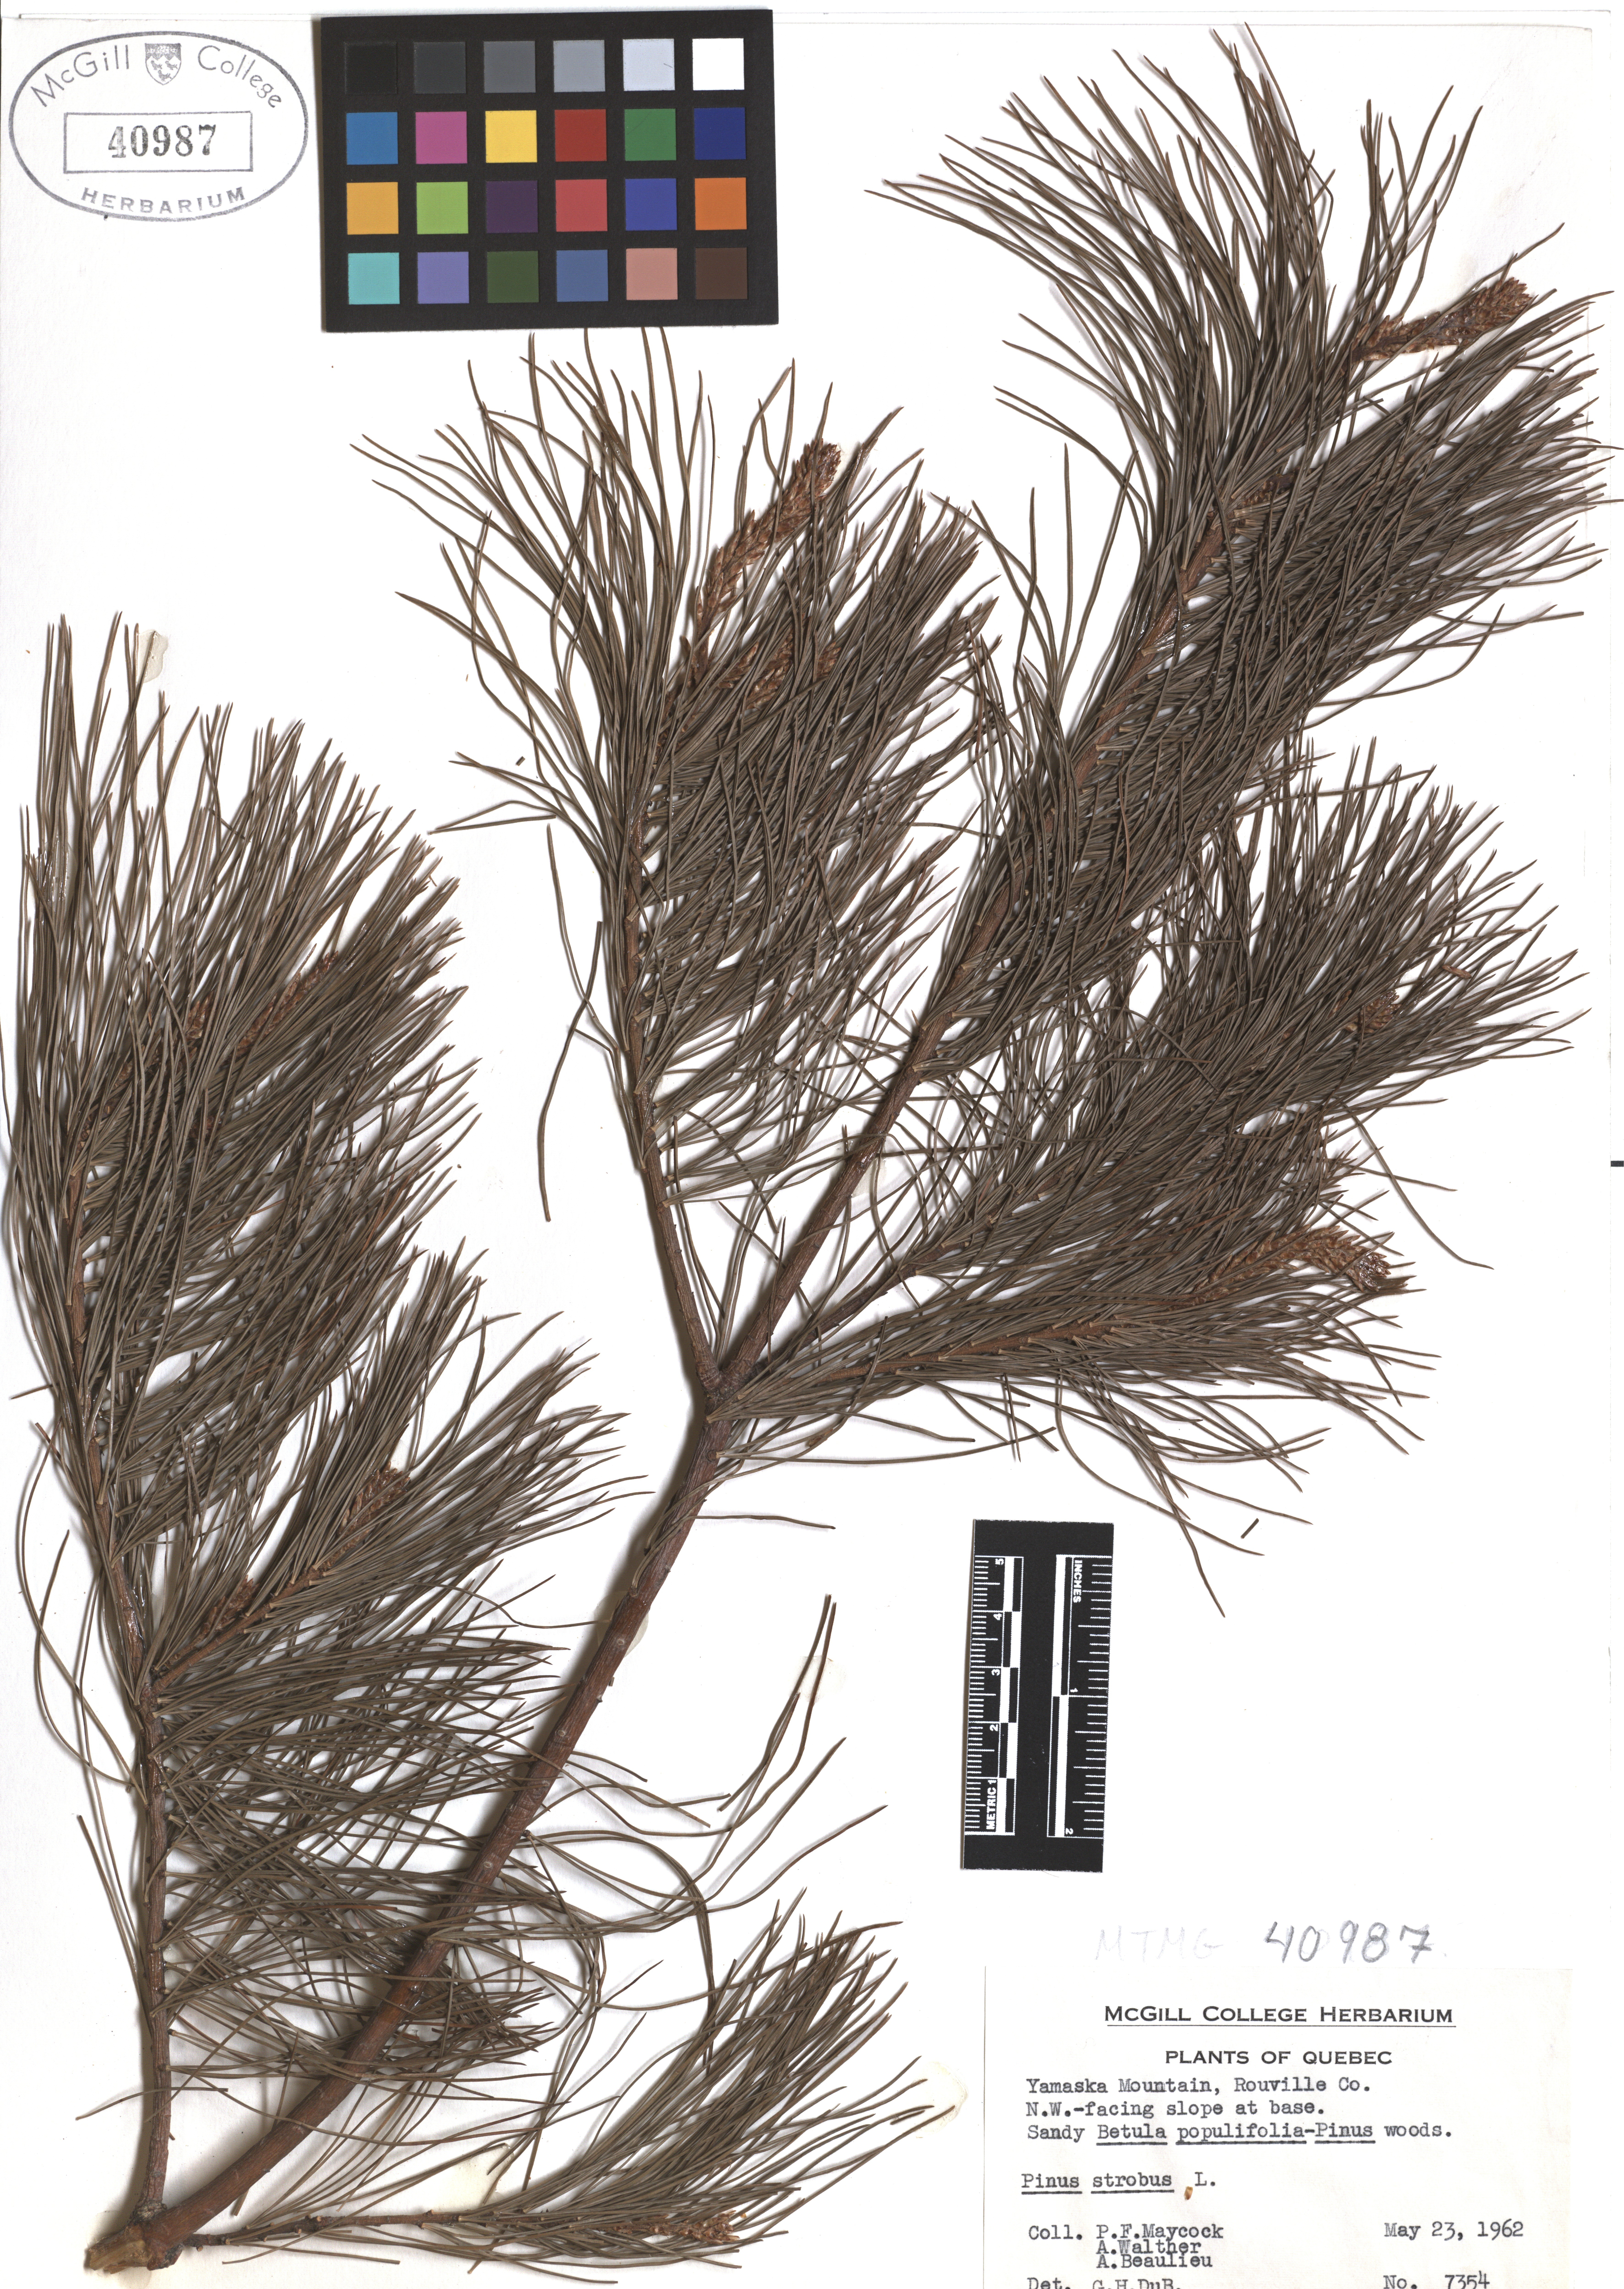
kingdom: Plantae
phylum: Tracheophyta
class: Pinopsida
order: Pinales
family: Pinaceae
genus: Pinus
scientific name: Pinus strobus
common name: Weymouth pine
